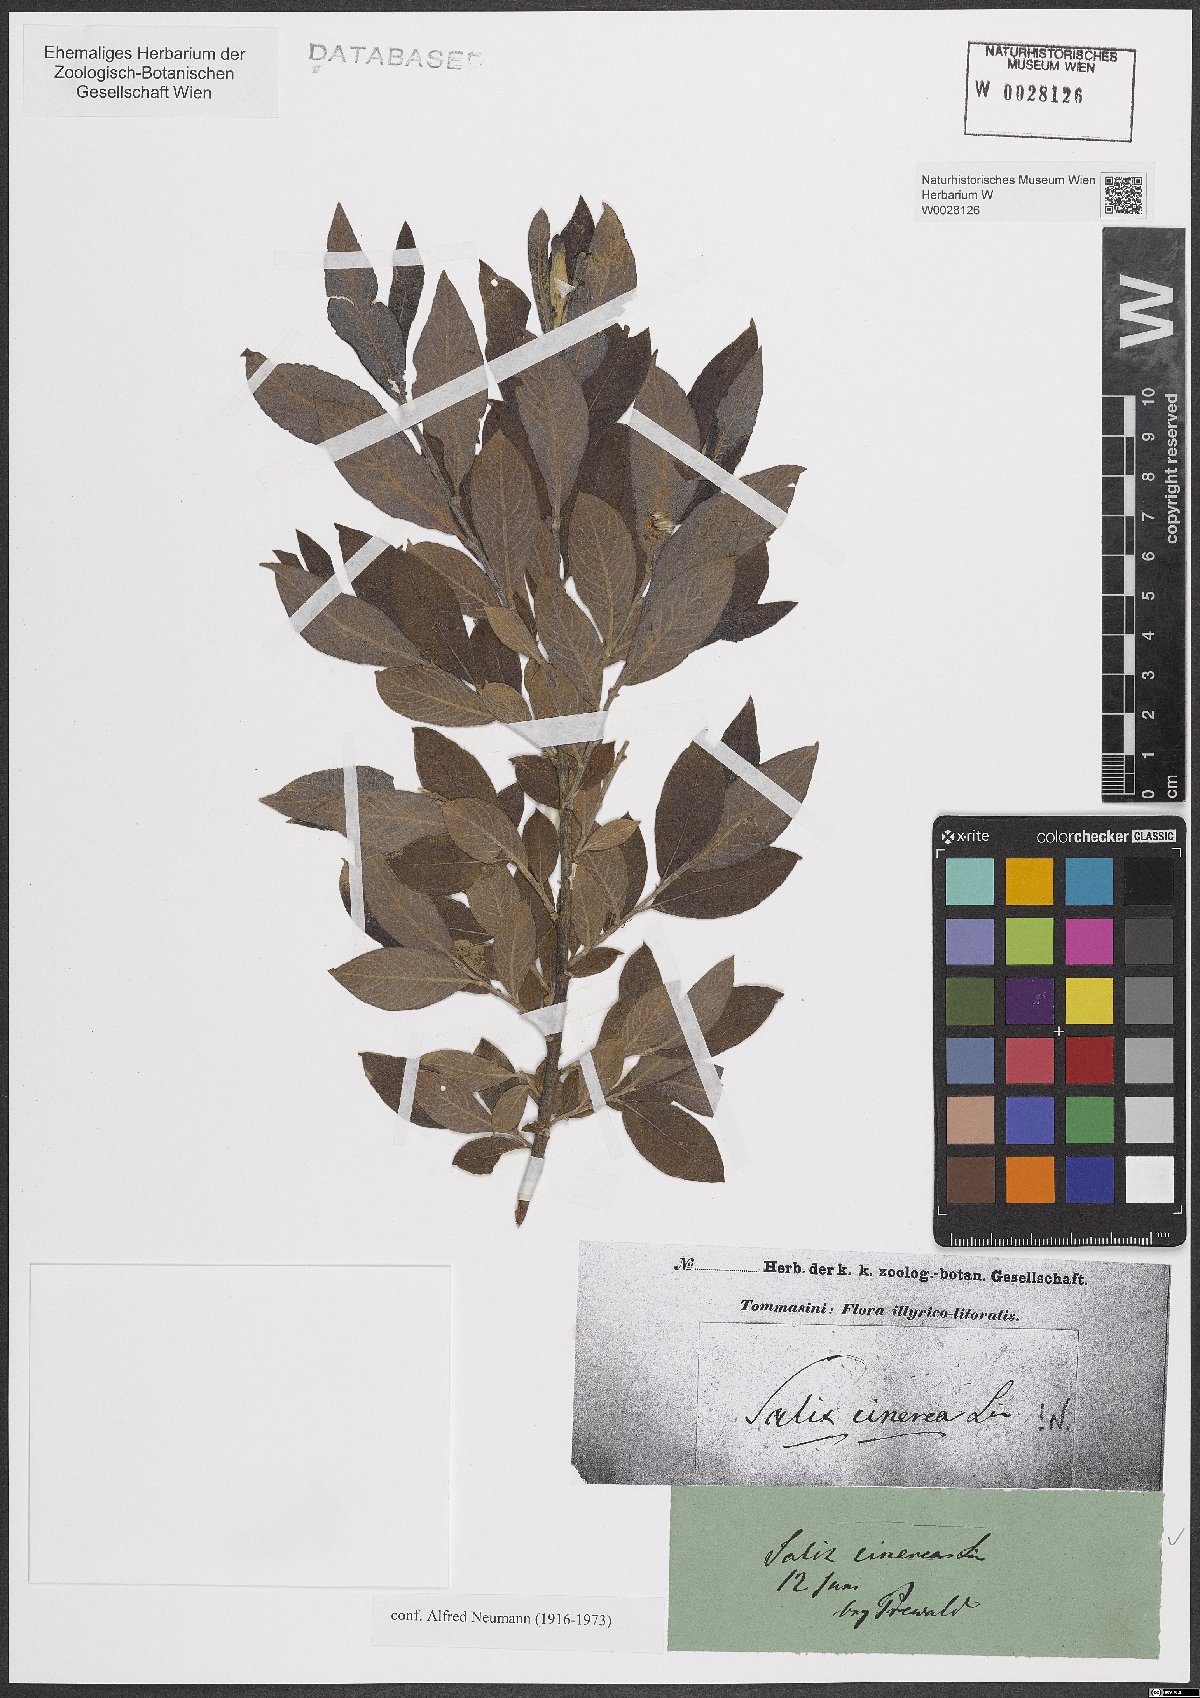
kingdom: Plantae
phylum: Tracheophyta
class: Magnoliopsida
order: Malpighiales
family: Salicaceae
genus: Salix
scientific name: Salix cinerea
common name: Common sallow
